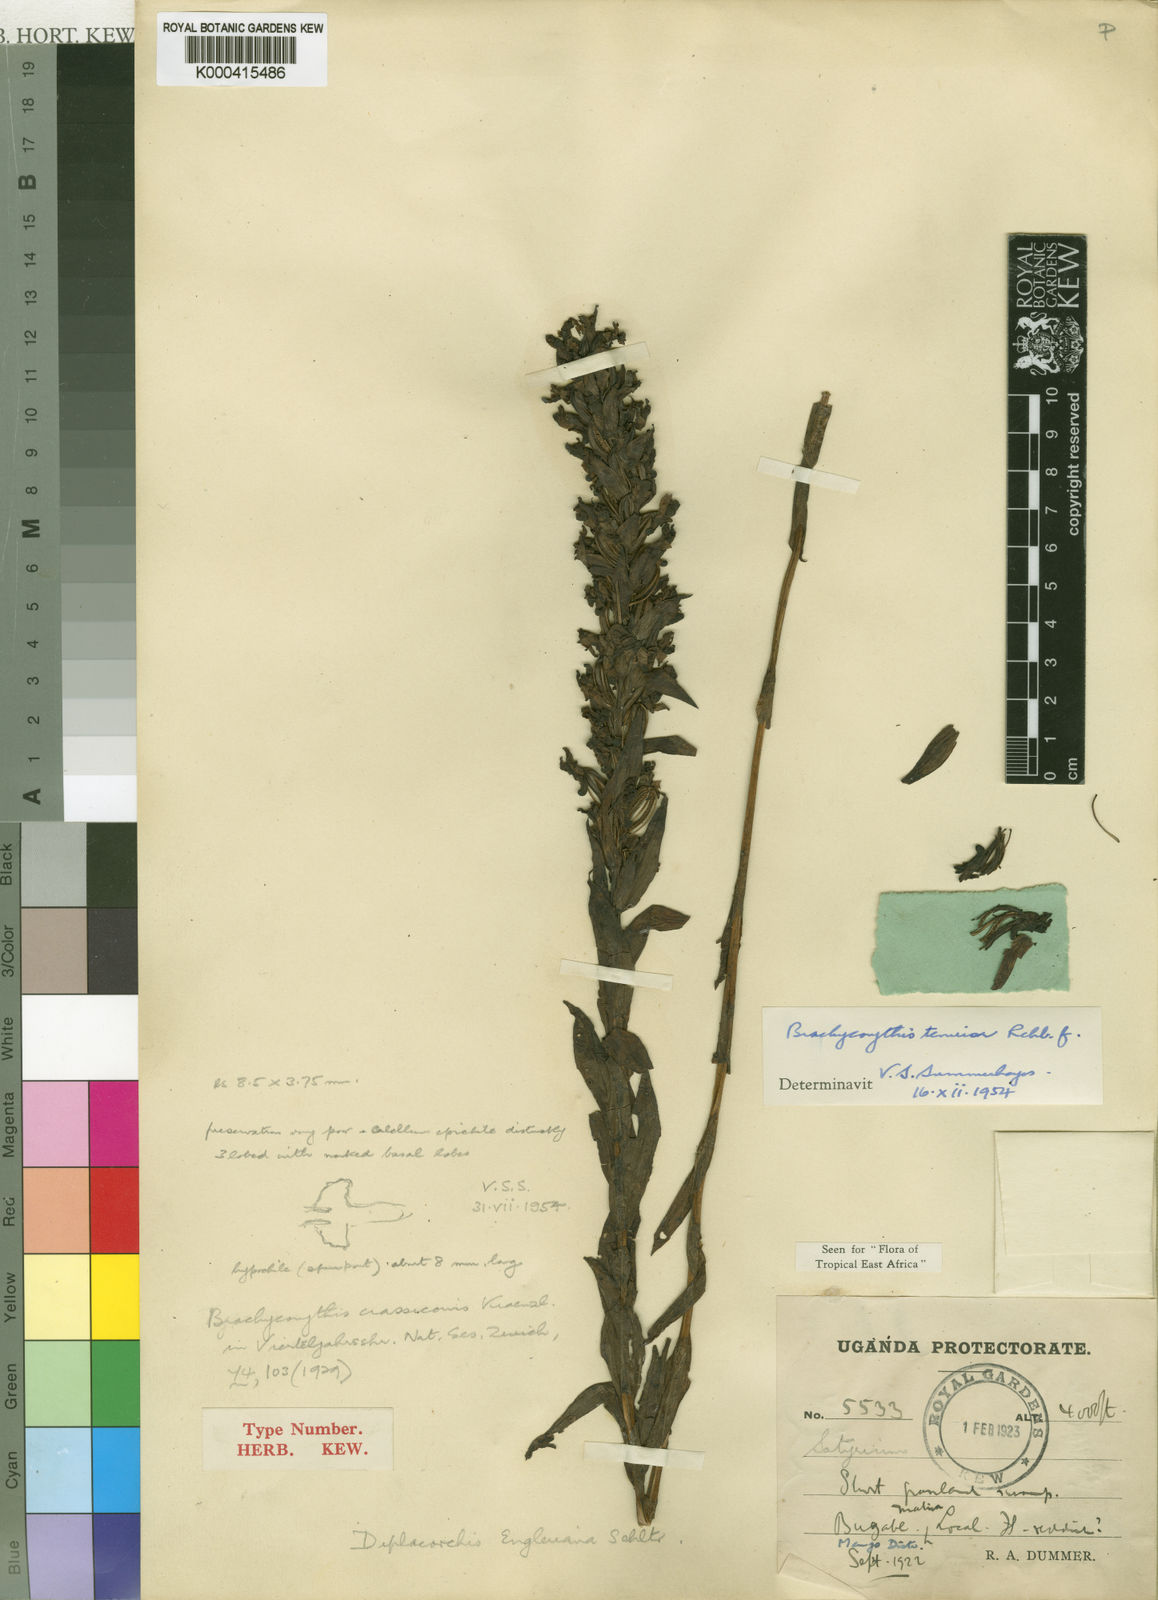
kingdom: Plantae
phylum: Tracheophyta
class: Liliopsida
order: Asparagales
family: Orchidaceae
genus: Brachycorythis
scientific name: Brachycorythis tenuior
